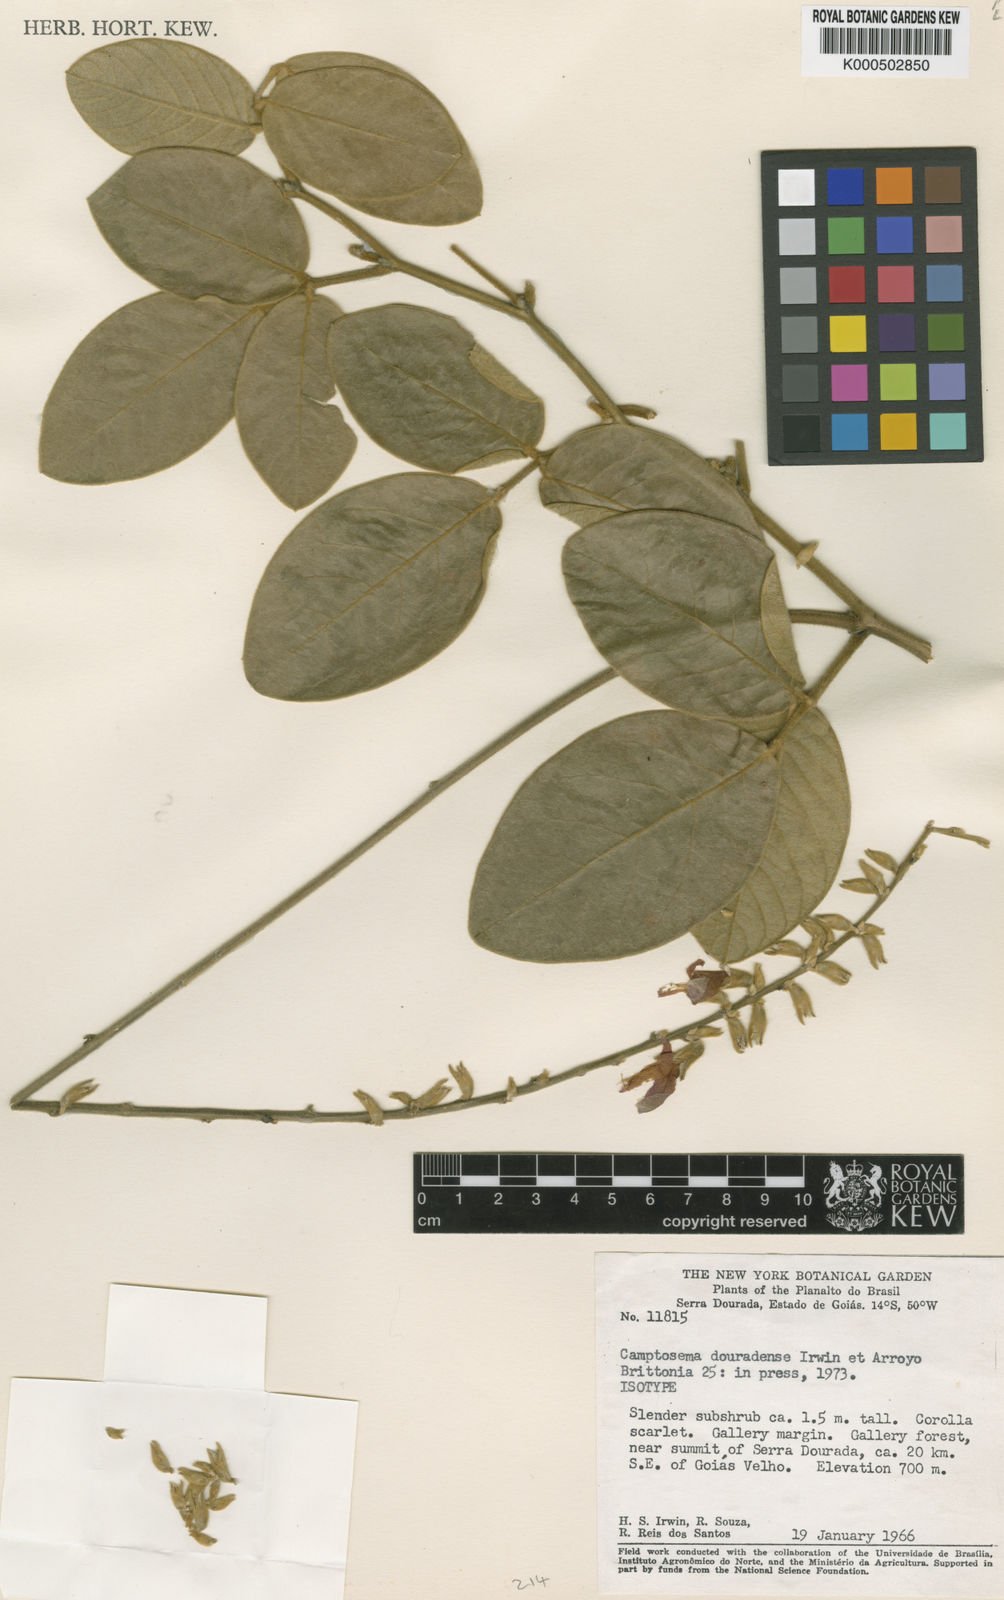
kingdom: Plantae
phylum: Tracheophyta
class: Magnoliopsida
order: Fabales
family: Fabaceae
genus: Cerradicola
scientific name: Cerradicola aurea
